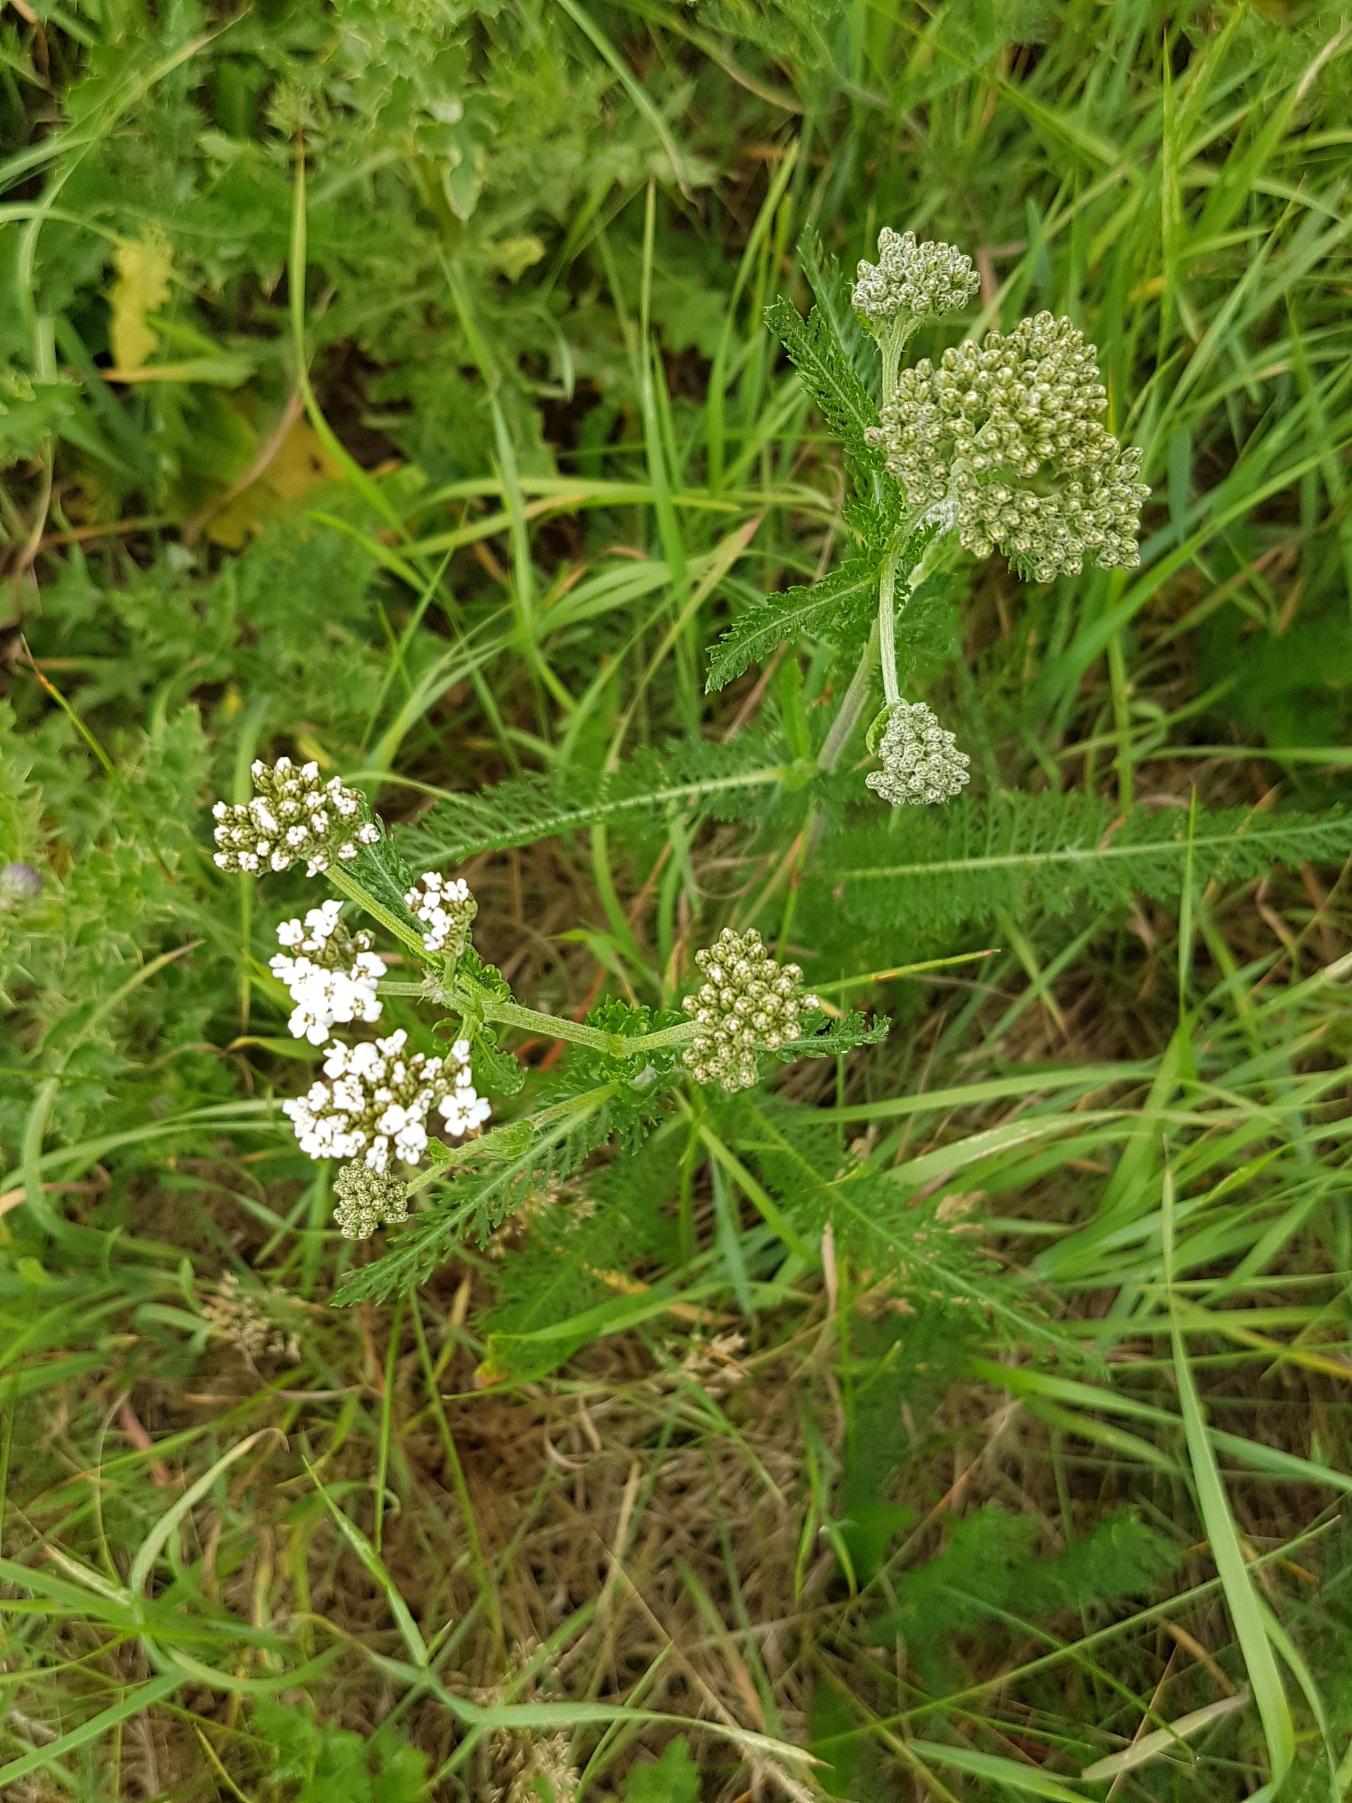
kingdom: Plantae
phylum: Tracheophyta
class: Magnoliopsida
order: Asterales
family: Asteraceae
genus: Achillea
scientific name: Achillea millefolium
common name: Almindelig røllike
